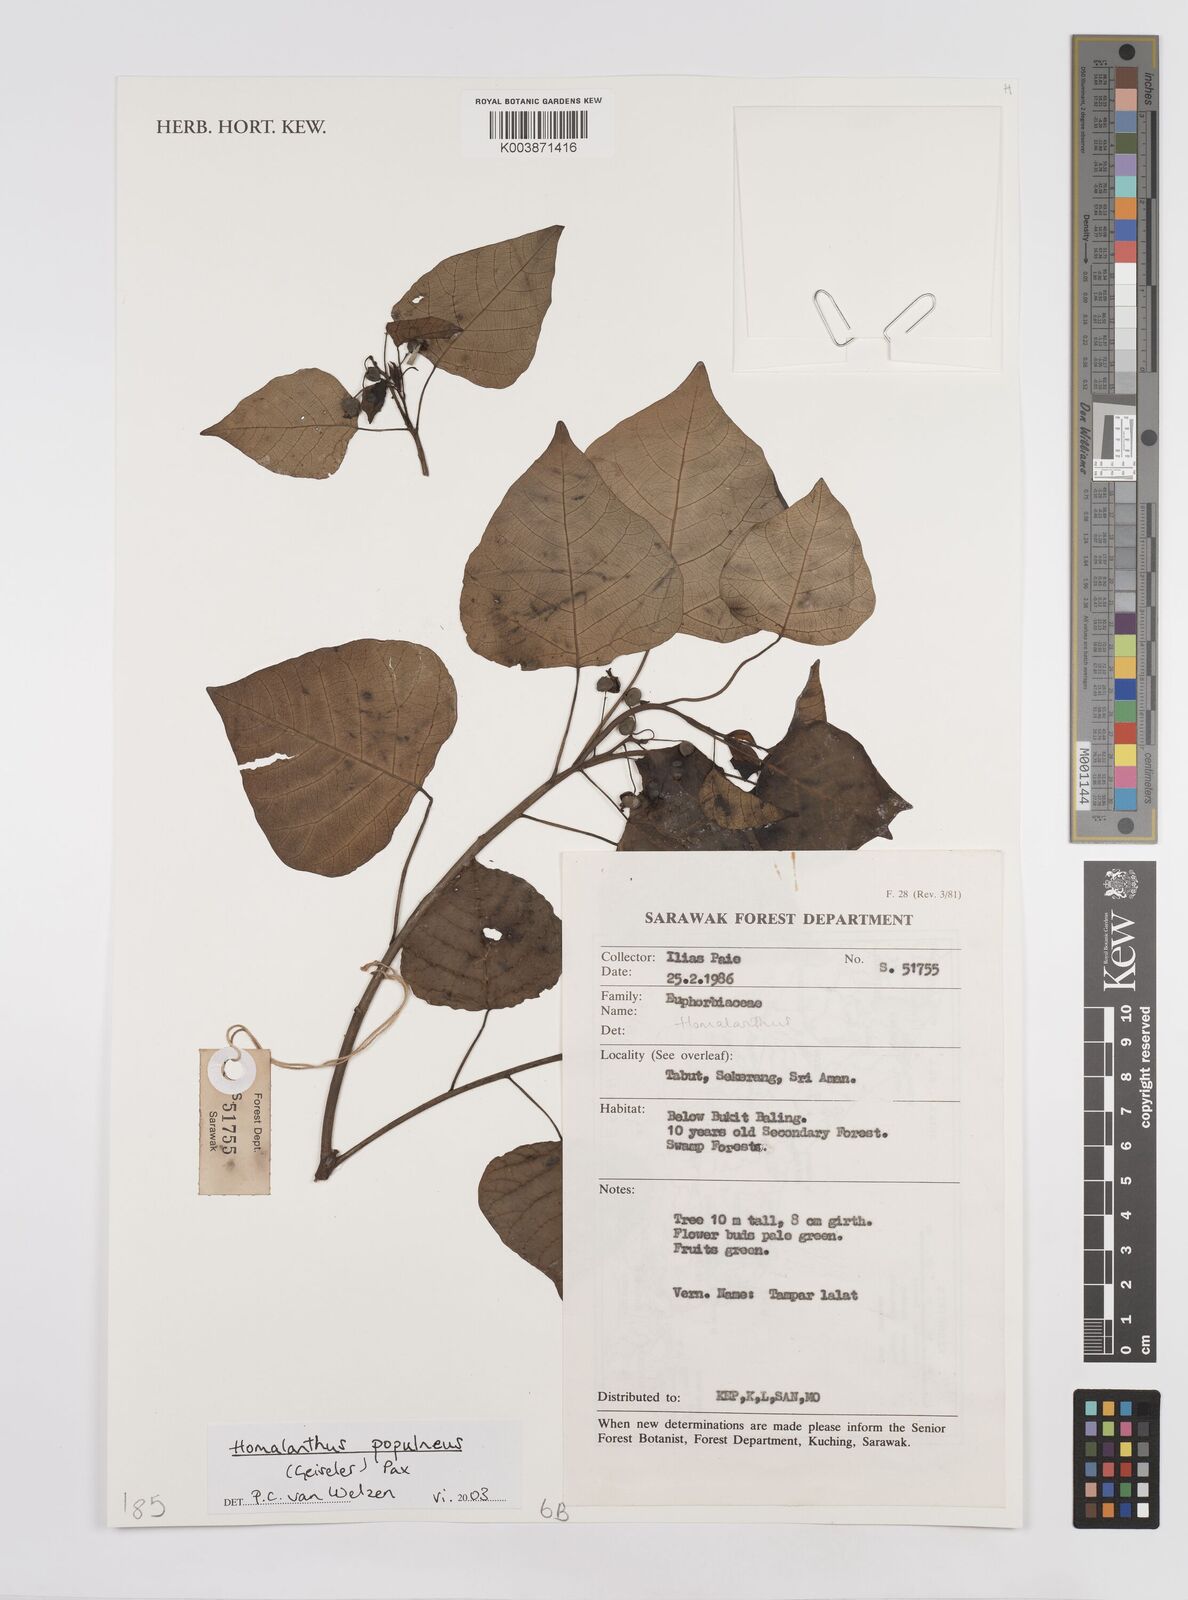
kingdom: Plantae
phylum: Tracheophyta
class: Magnoliopsida
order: Malpighiales
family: Euphorbiaceae
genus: Homalanthus
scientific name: Homalanthus populneus
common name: Spurge
